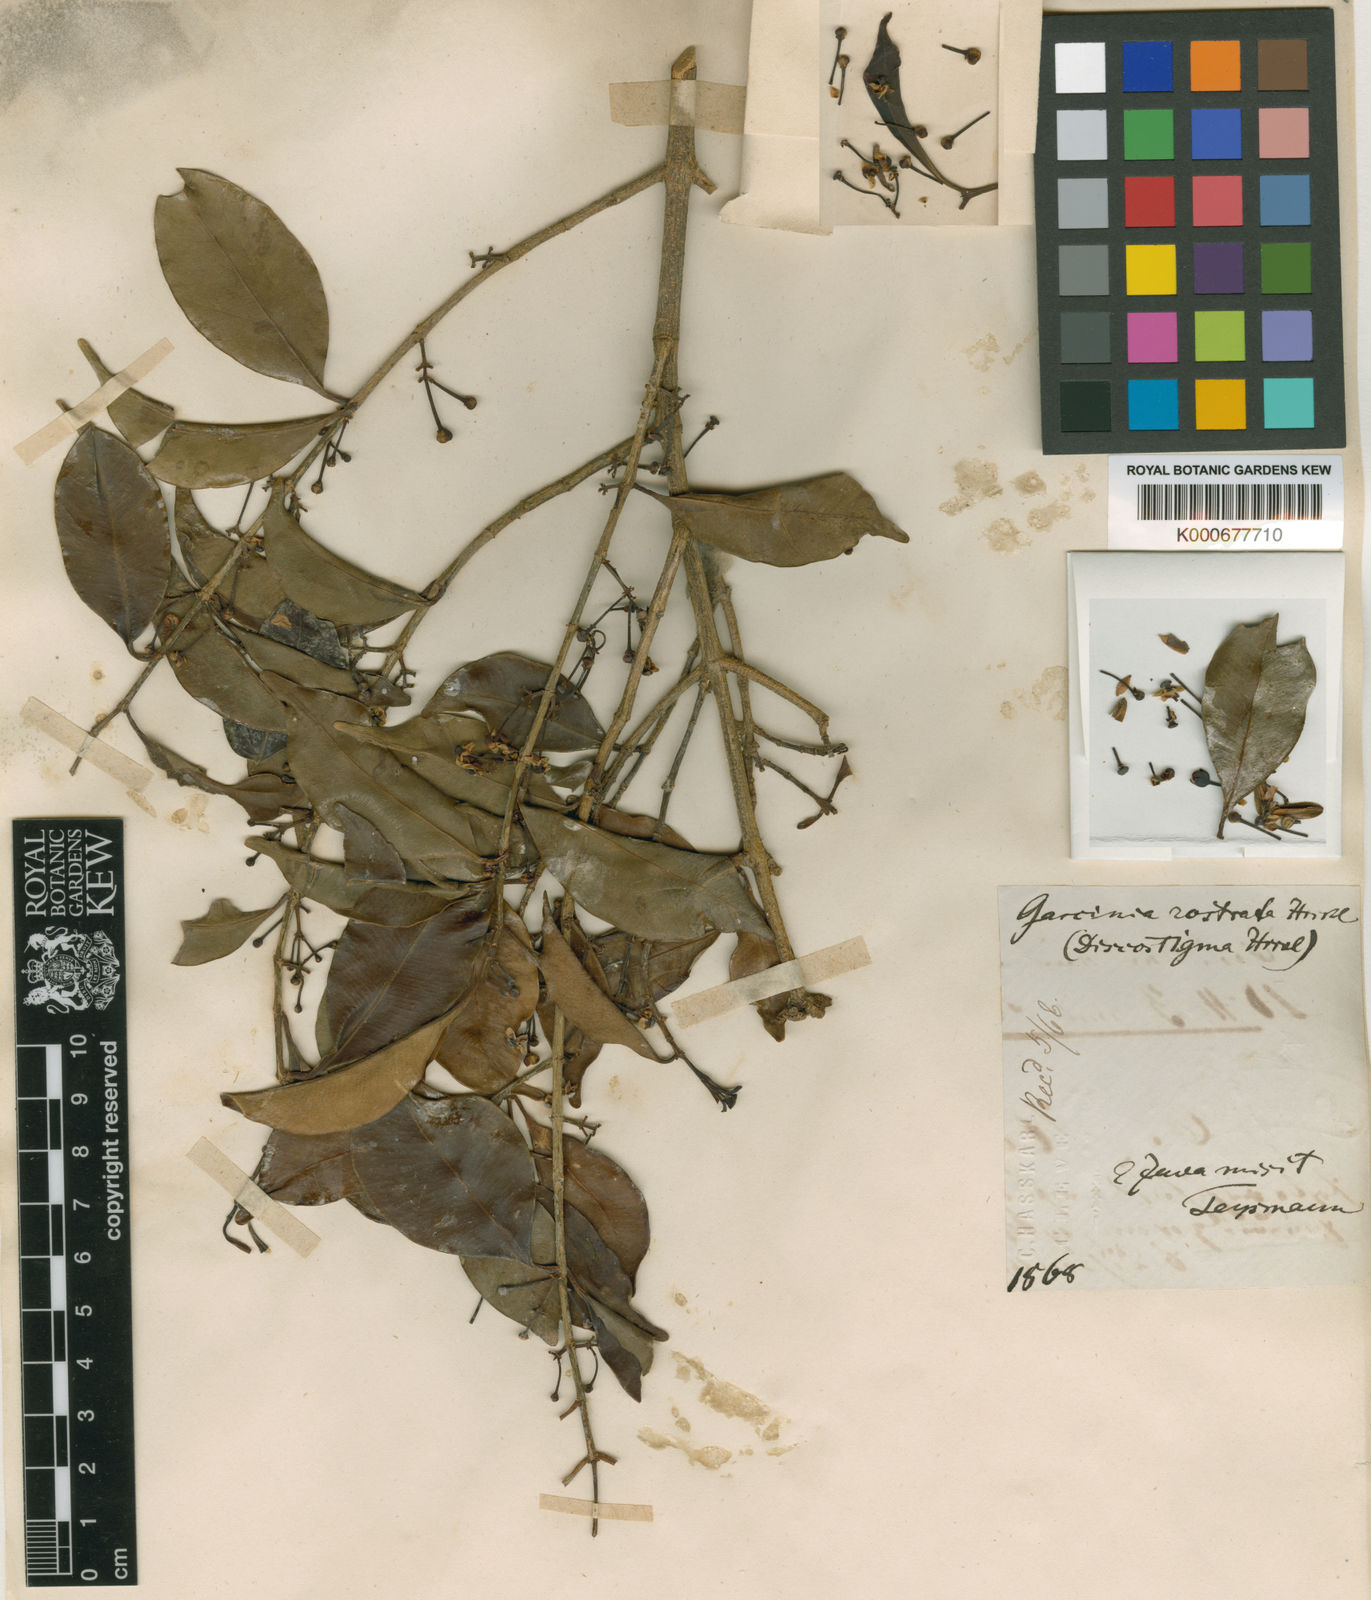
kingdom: Plantae
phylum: Tracheophyta
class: Magnoliopsida
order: Malpighiales
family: Clusiaceae
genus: Garcinia
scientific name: Garcinia
